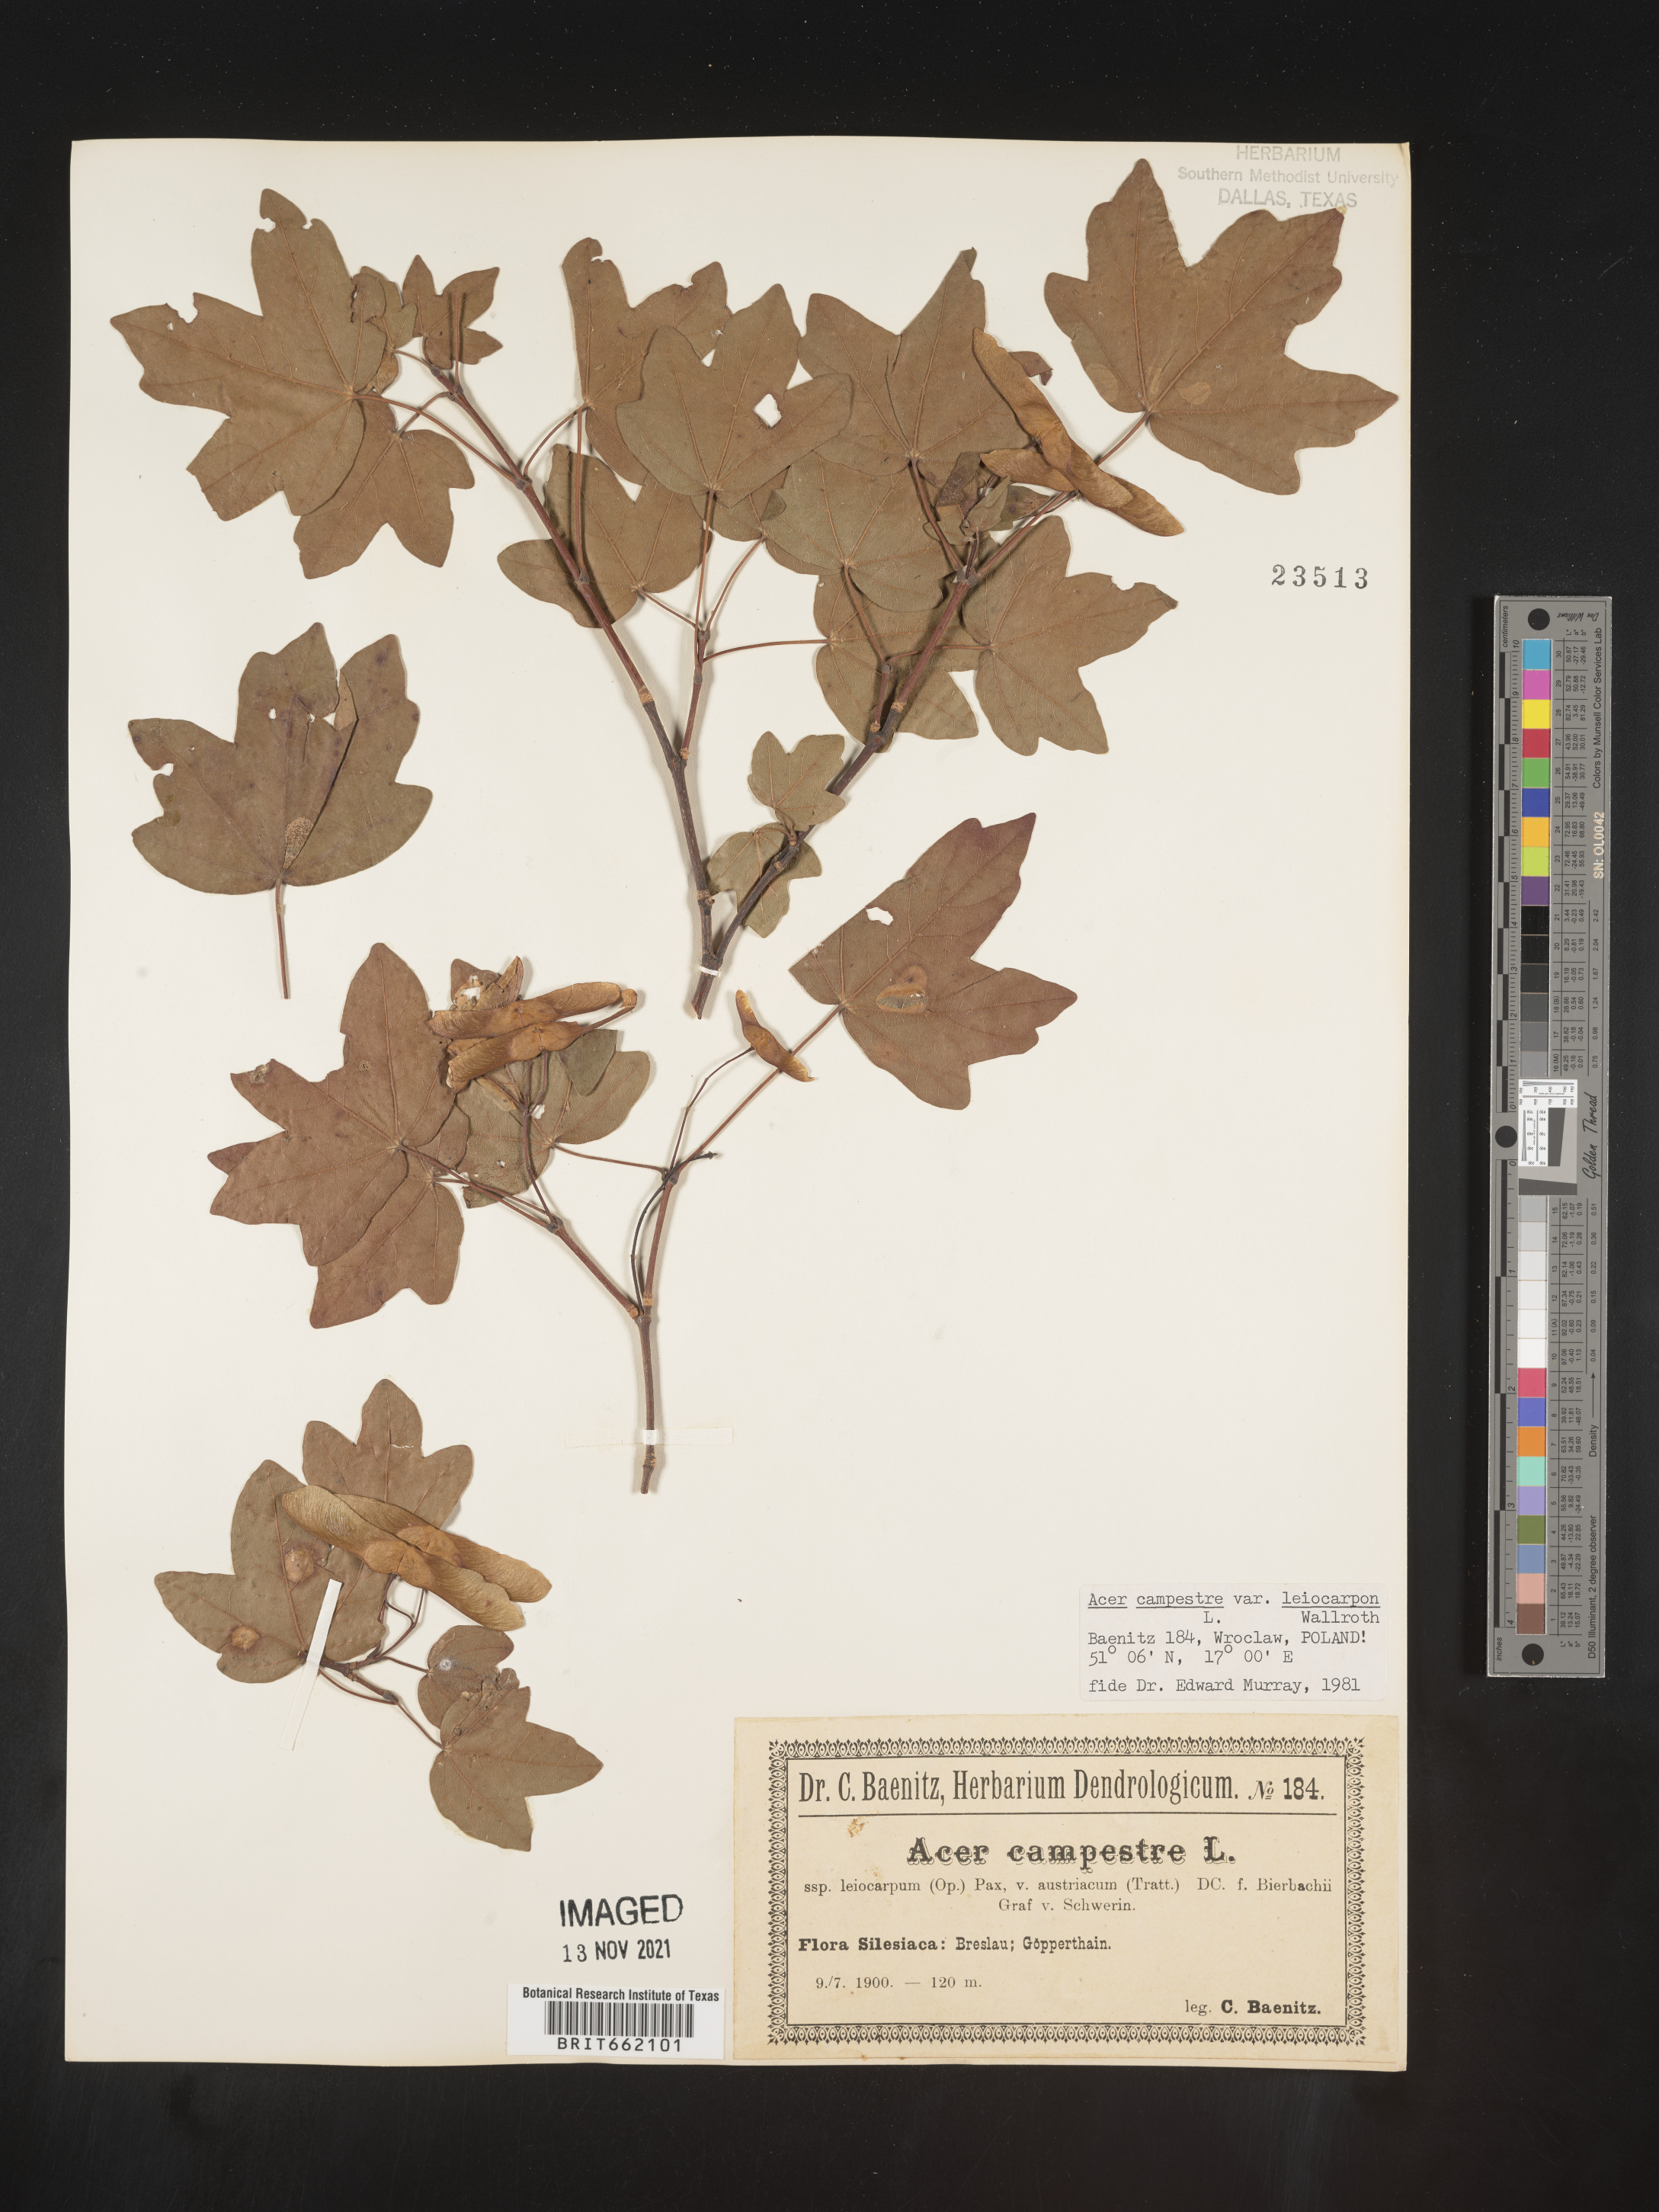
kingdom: Plantae
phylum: Tracheophyta
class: Magnoliopsida
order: Sapindales
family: Sapindaceae
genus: Acer
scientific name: Acer
